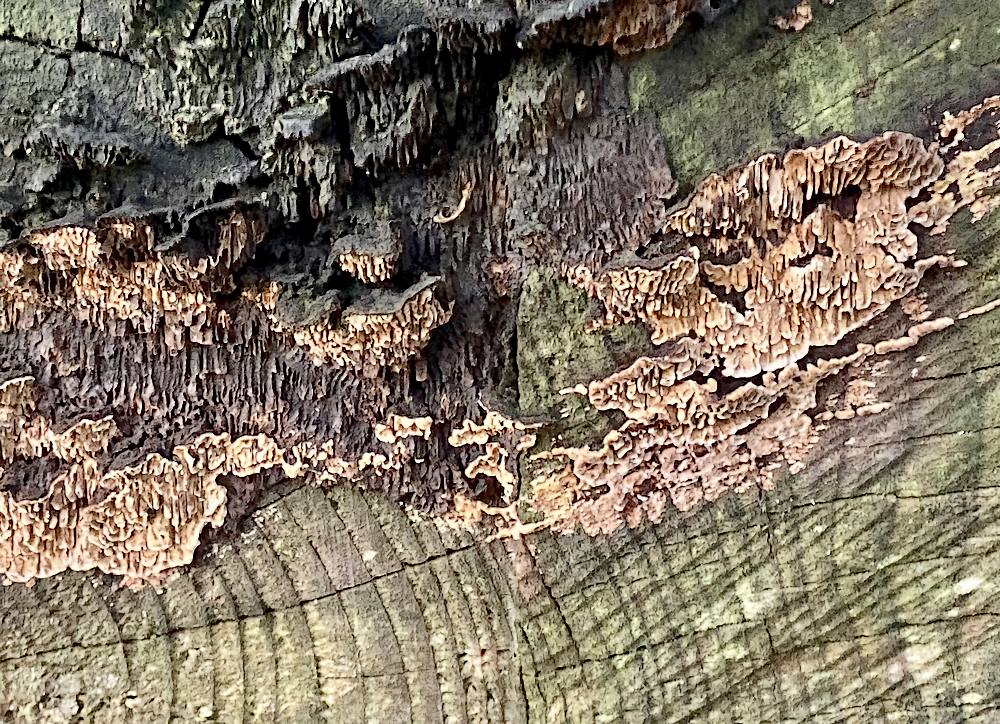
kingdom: Fungi
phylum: Basidiomycota
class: Agaricomycetes
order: Gloeophyllales
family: Gloeophyllaceae
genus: Gloeophyllum
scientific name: Gloeophyllum
